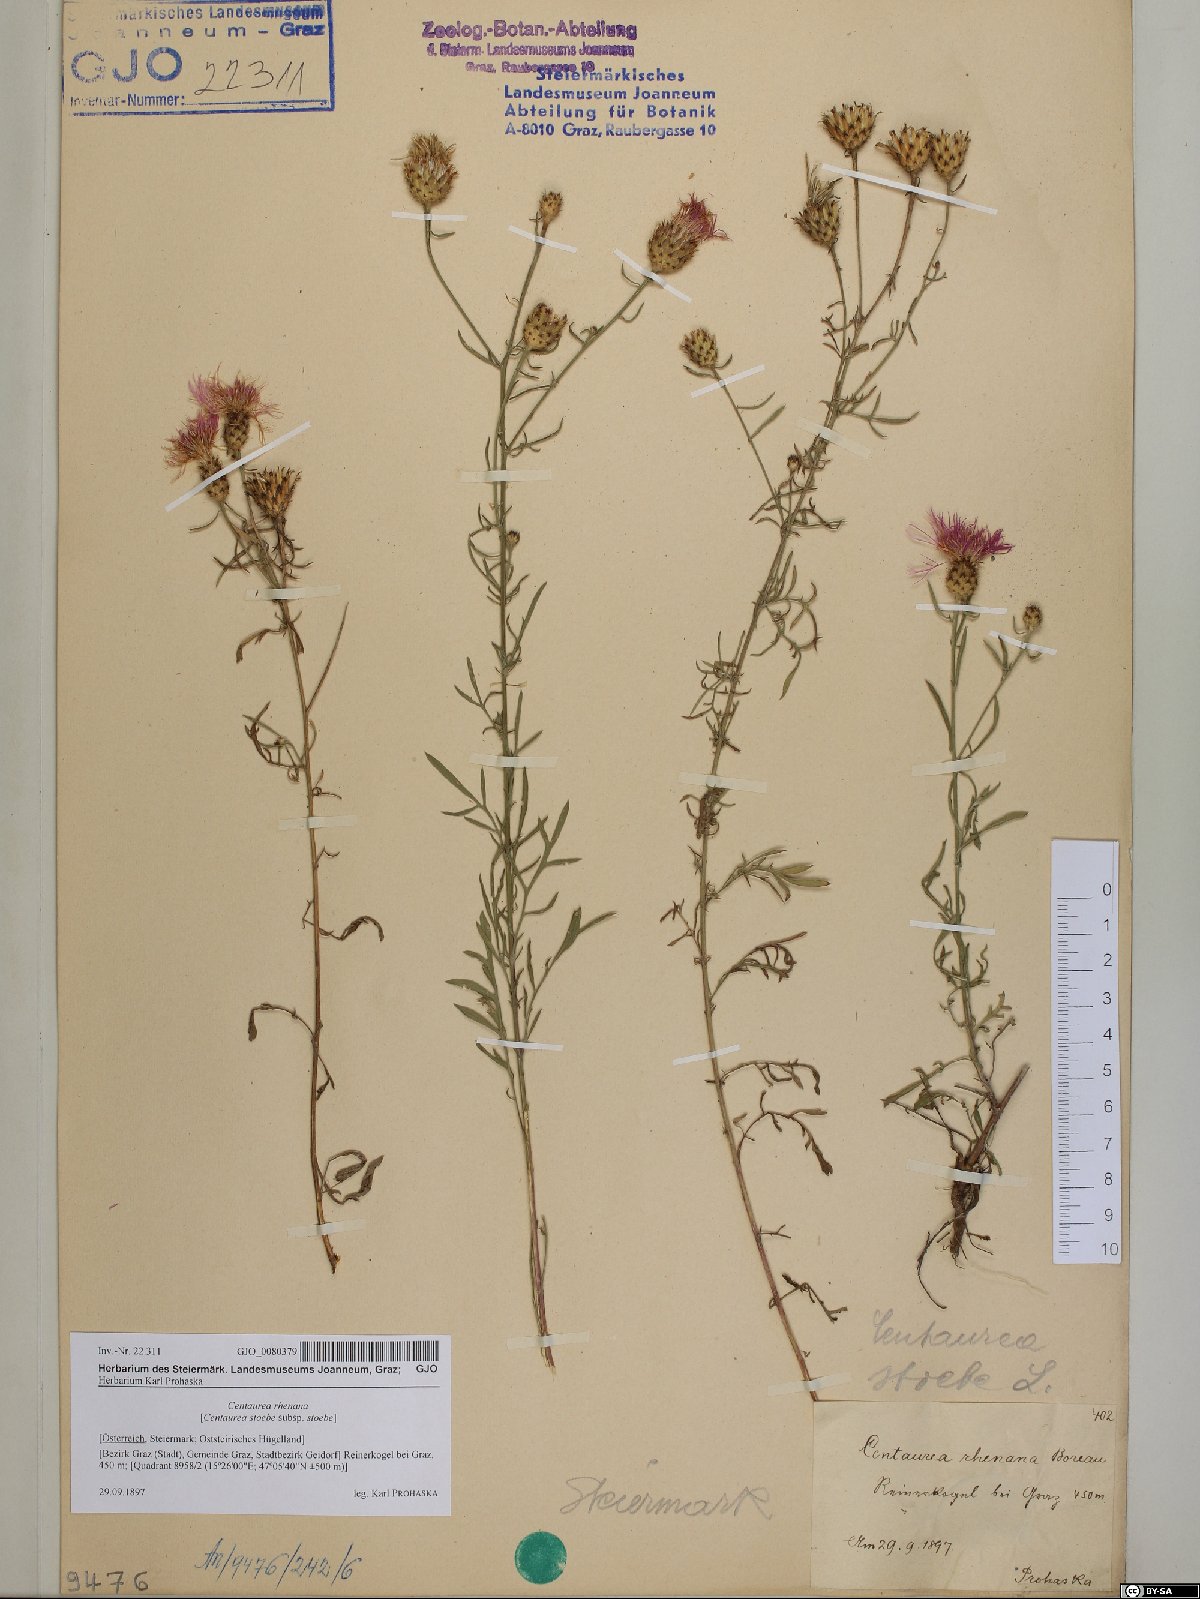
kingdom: Plantae
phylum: Tracheophyta
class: Magnoliopsida
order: Asterales
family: Asteraceae
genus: Centaurea
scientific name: Centaurea stoebe
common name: Spotted knapweed
